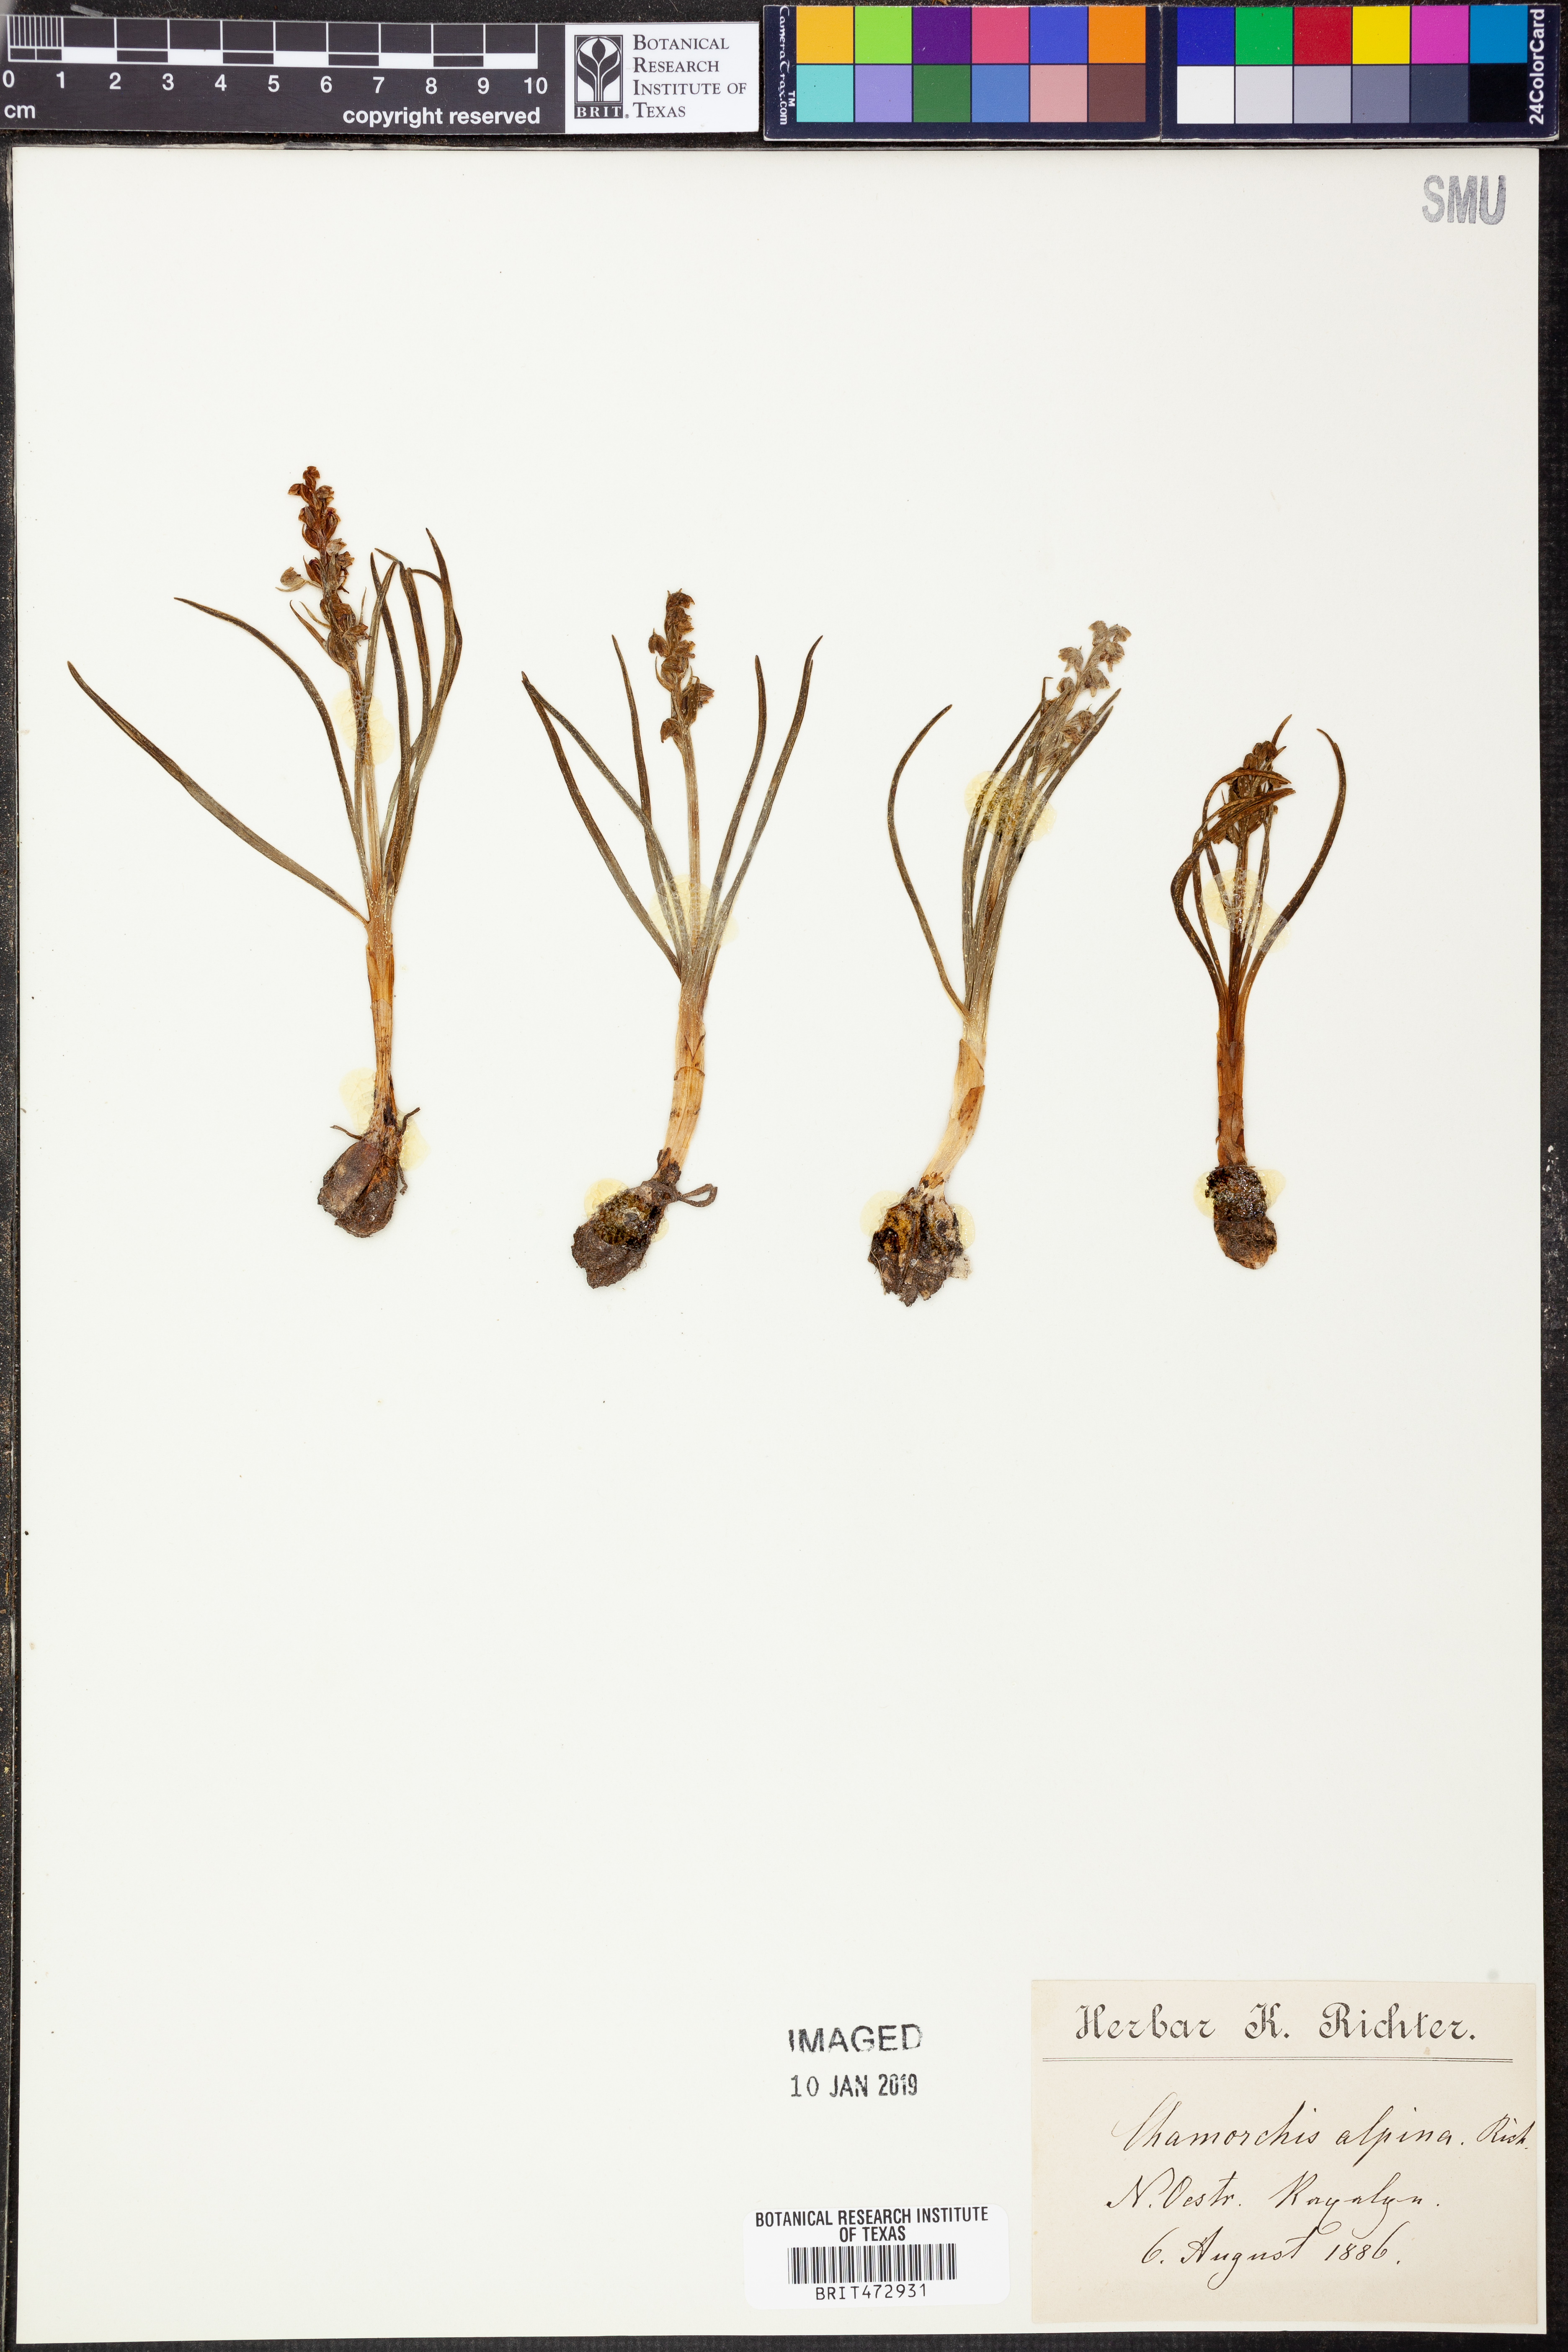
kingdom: Plantae
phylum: Tracheophyta
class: Liliopsida
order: Asparagales
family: Orchidaceae
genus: Chamorchis
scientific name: Chamorchis alpina
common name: Alpine chamorchis
